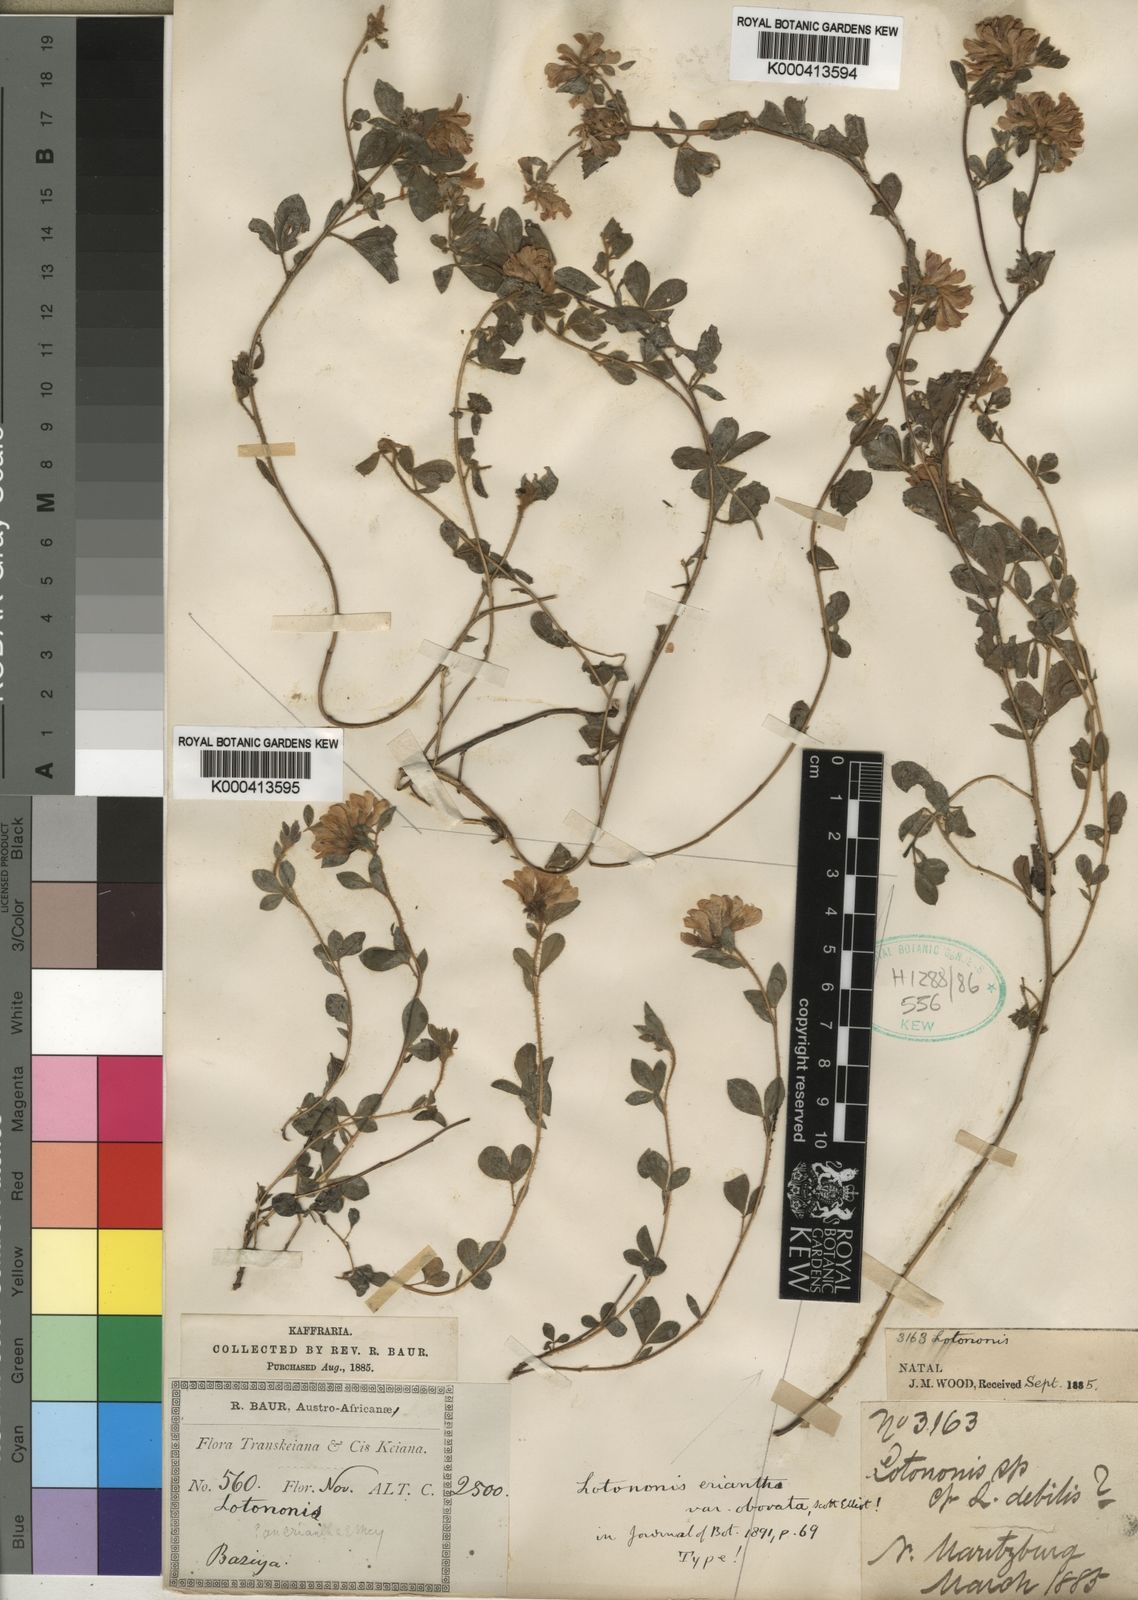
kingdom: Plantae
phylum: Tracheophyta
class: Magnoliopsida
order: Fabales
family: Fabaceae
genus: Lotononis
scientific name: Lotononis
